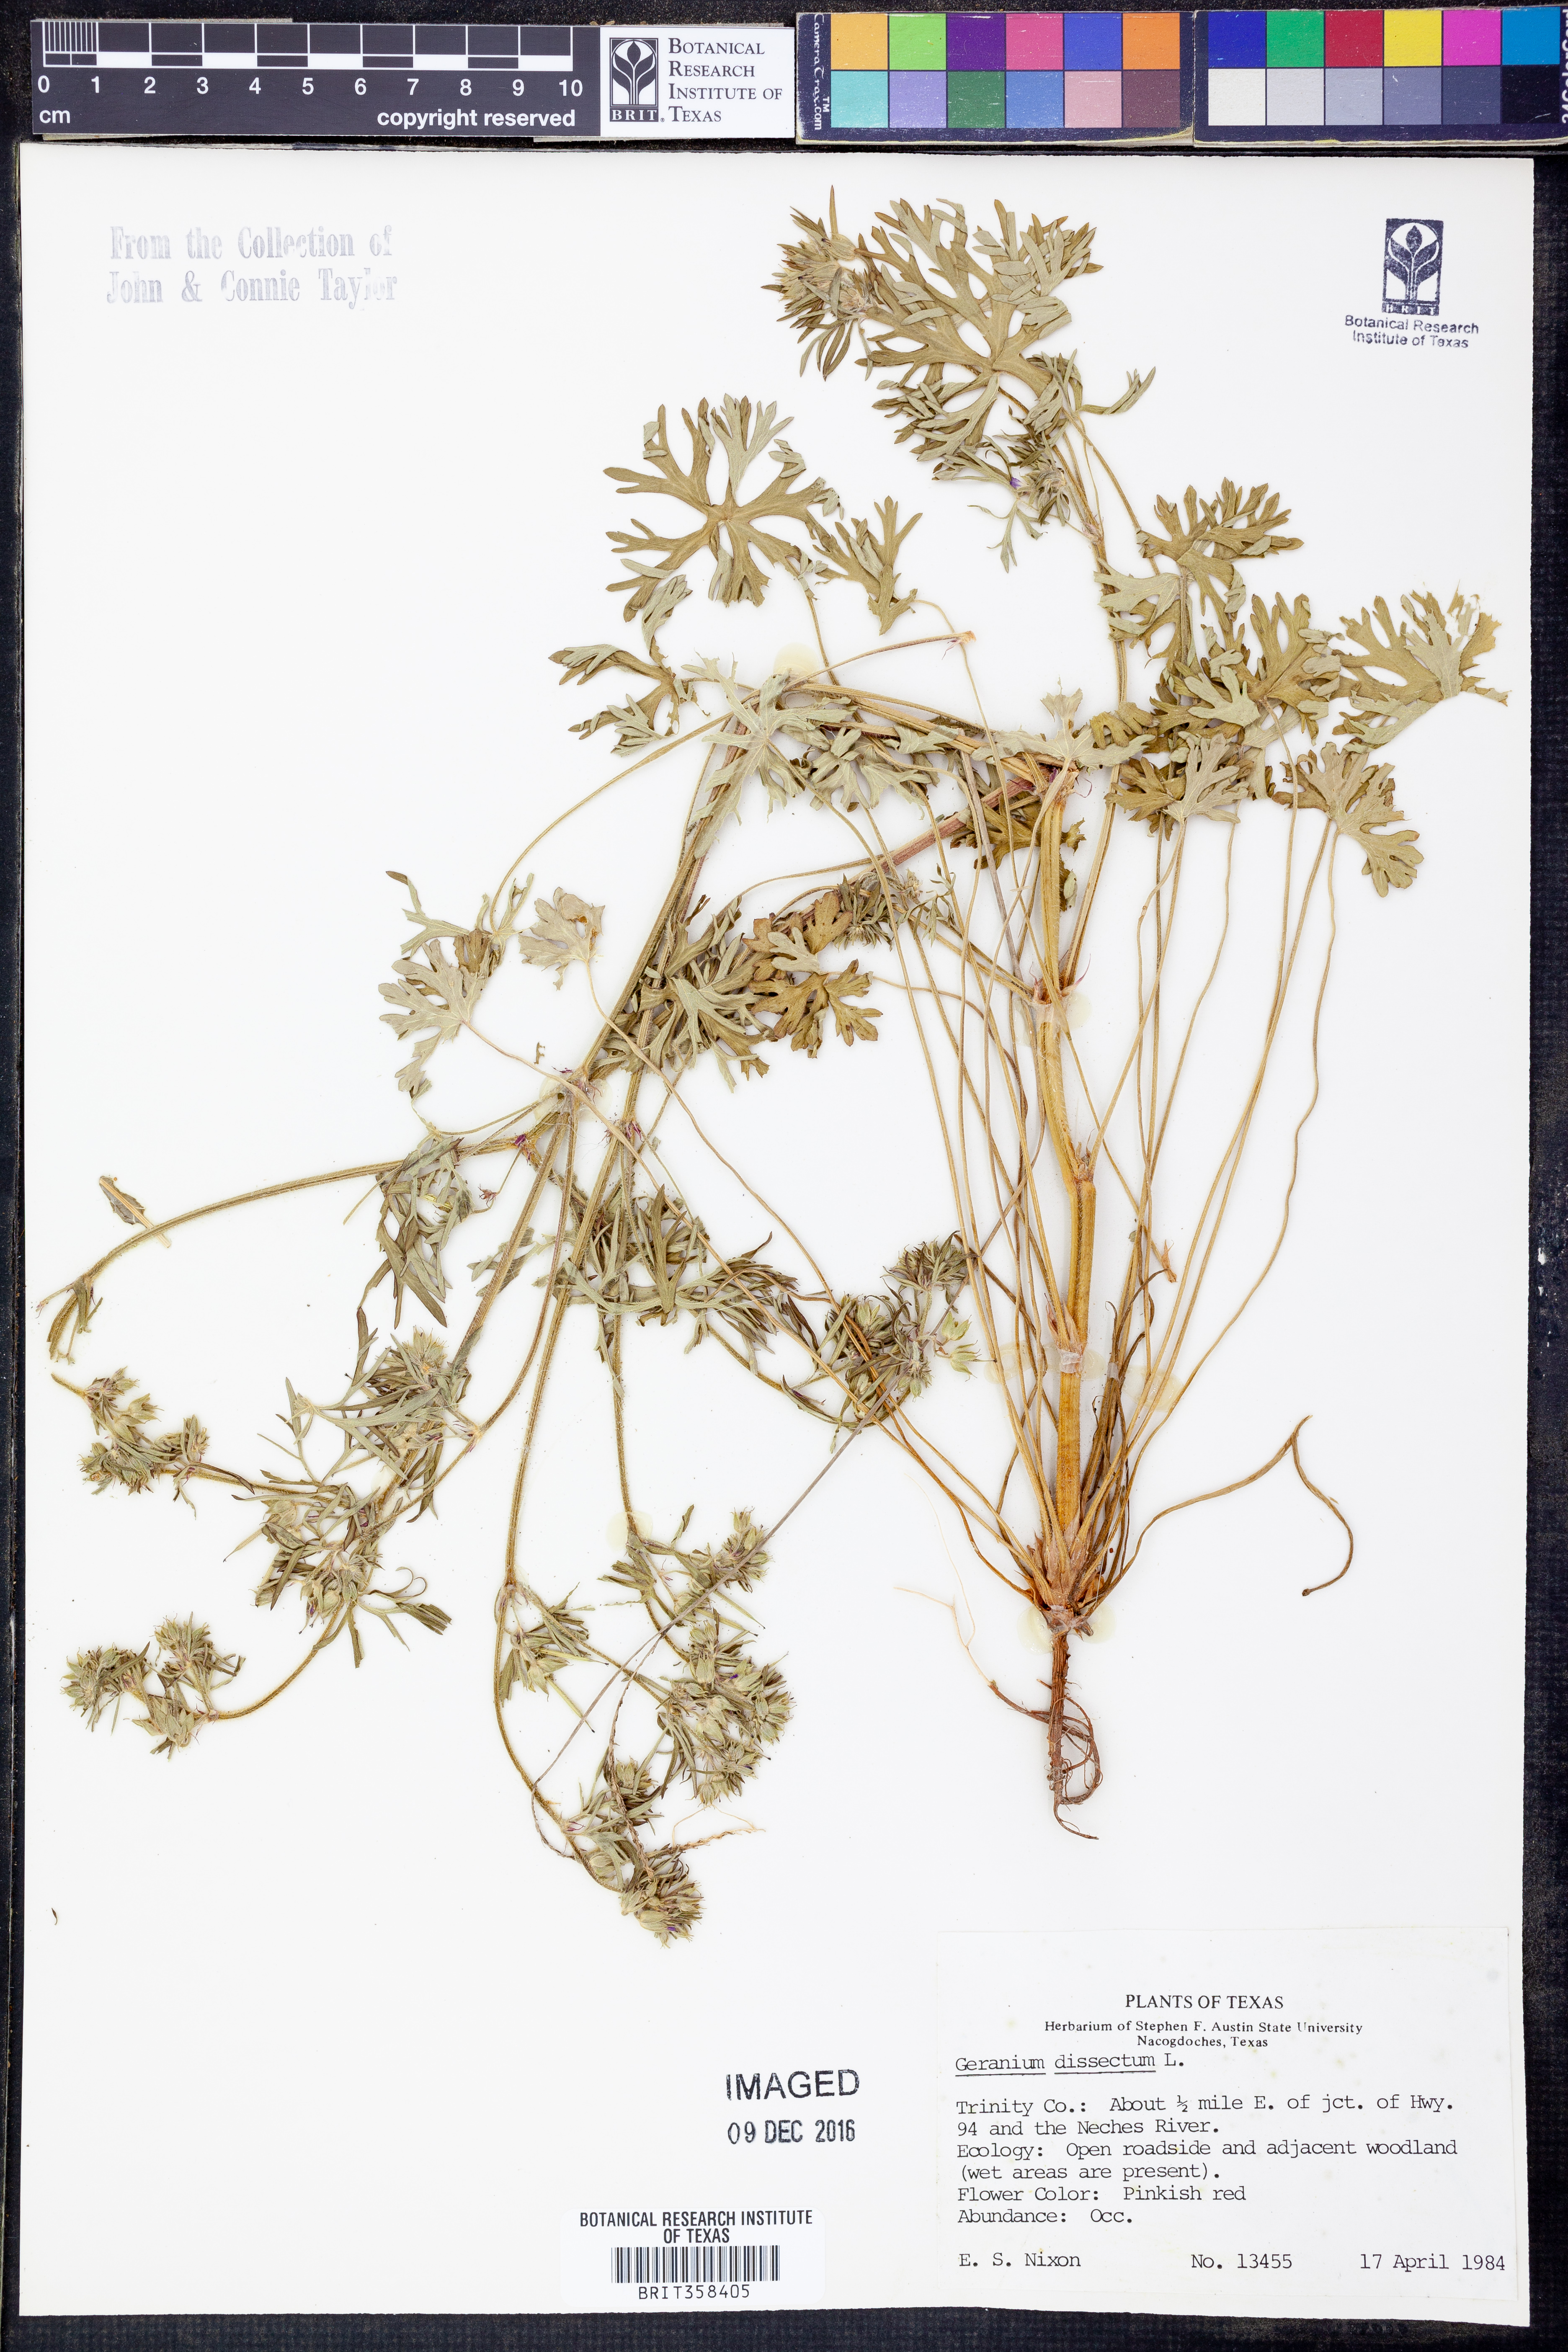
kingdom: Plantae
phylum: Tracheophyta
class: Magnoliopsida
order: Geraniales
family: Geraniaceae
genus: Geranium
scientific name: Geranium dissectum
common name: Cut-leaved crane's-bill
